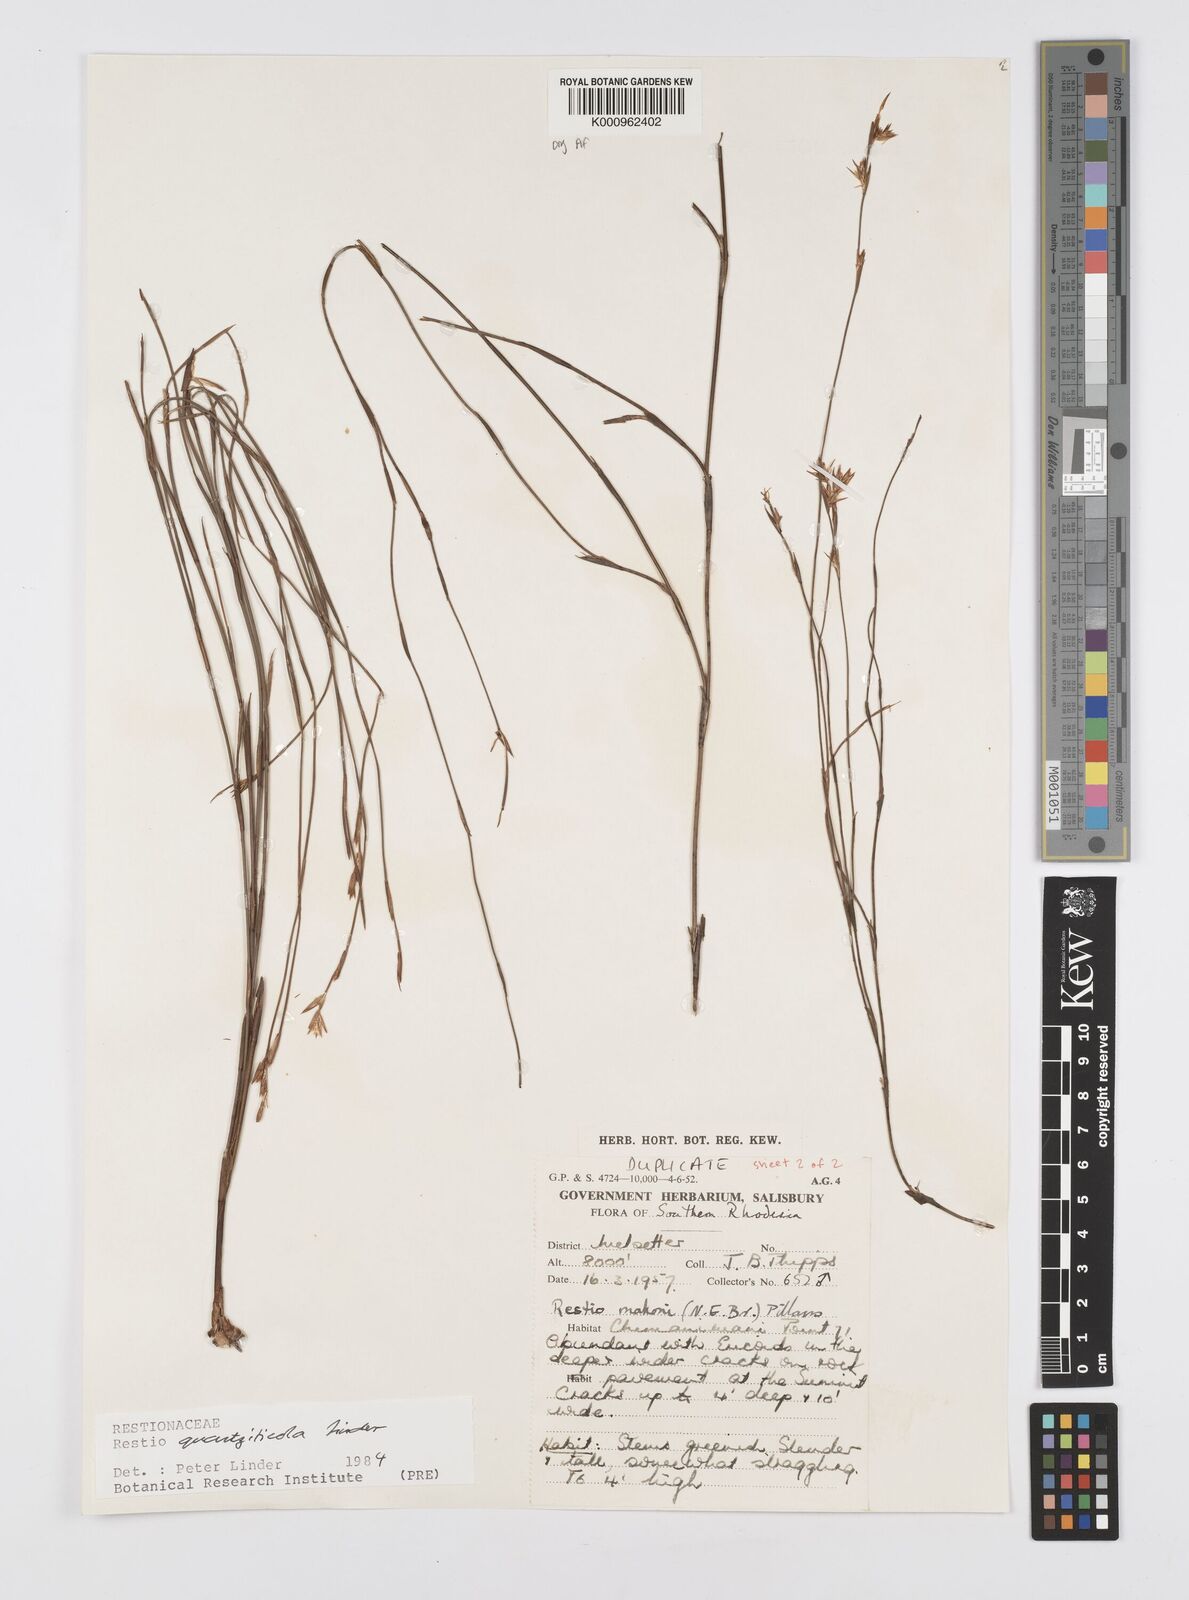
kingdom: Plantae
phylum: Tracheophyta
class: Liliopsida
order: Poales
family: Restionaceae
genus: Platycaulos
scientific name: Platycaulos quartziticola
